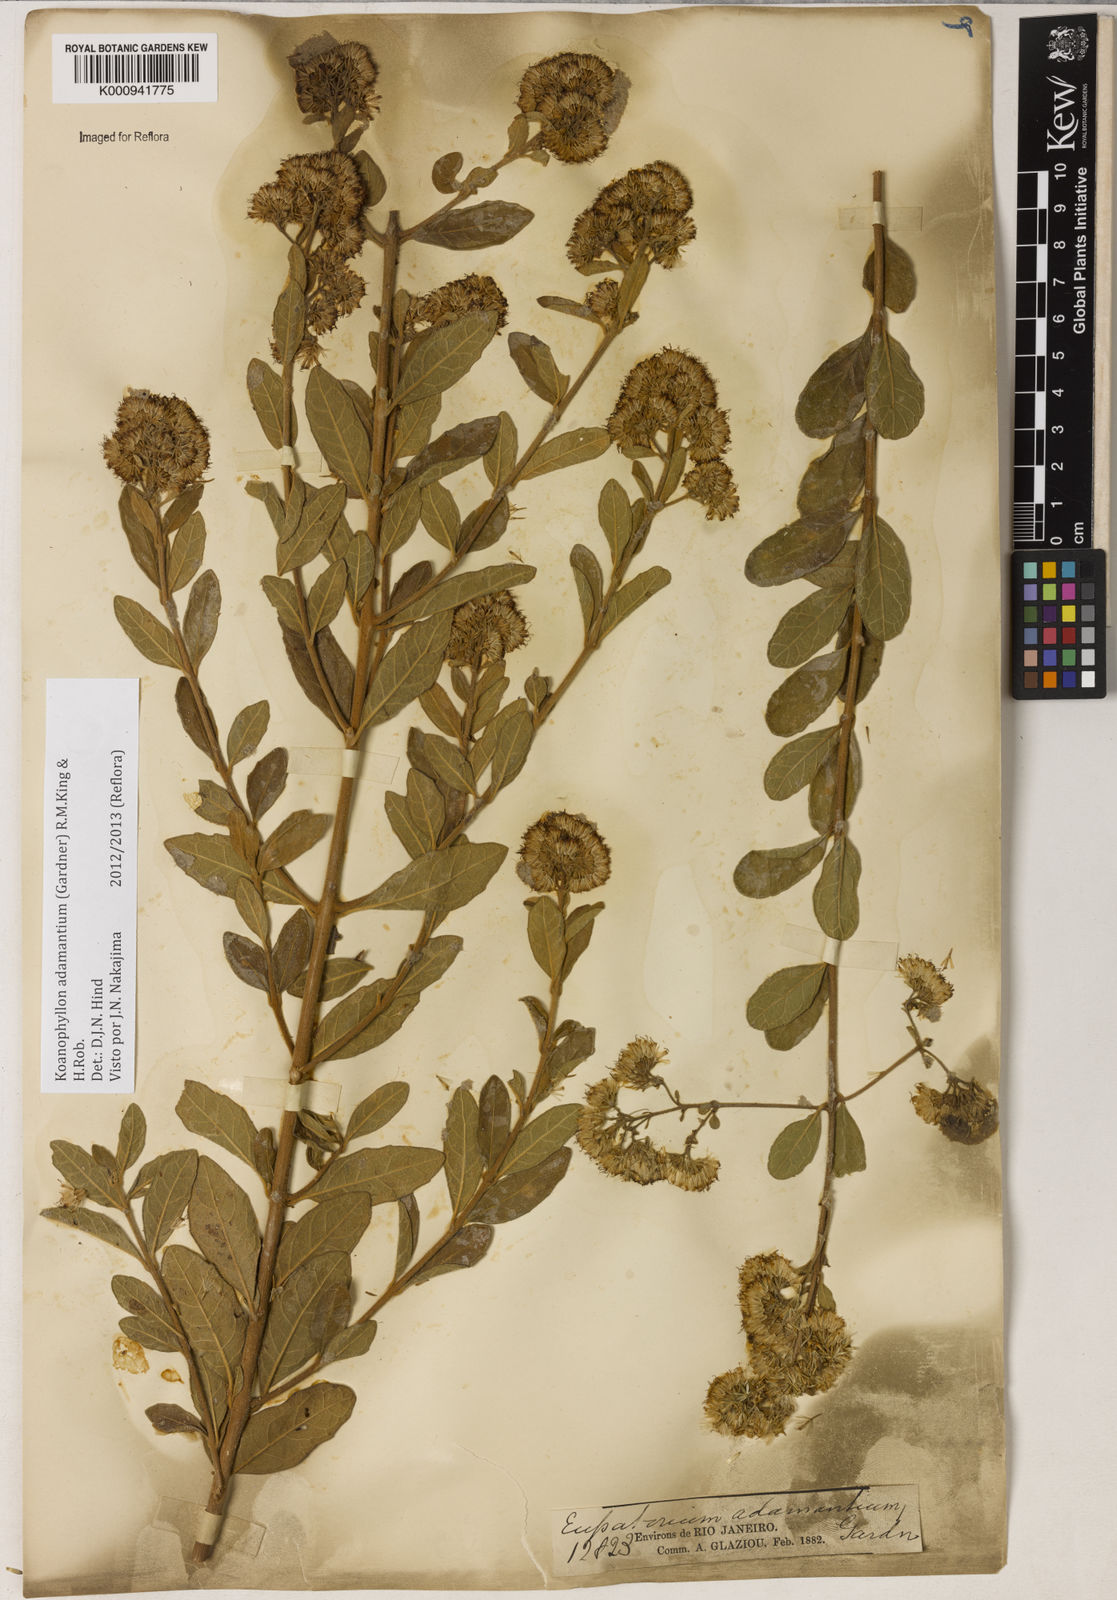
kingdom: Plantae
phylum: Tracheophyta
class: Magnoliopsida
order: Asterales
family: Asteraceae
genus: Koanophyllon
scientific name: Koanophyllon adamantium
